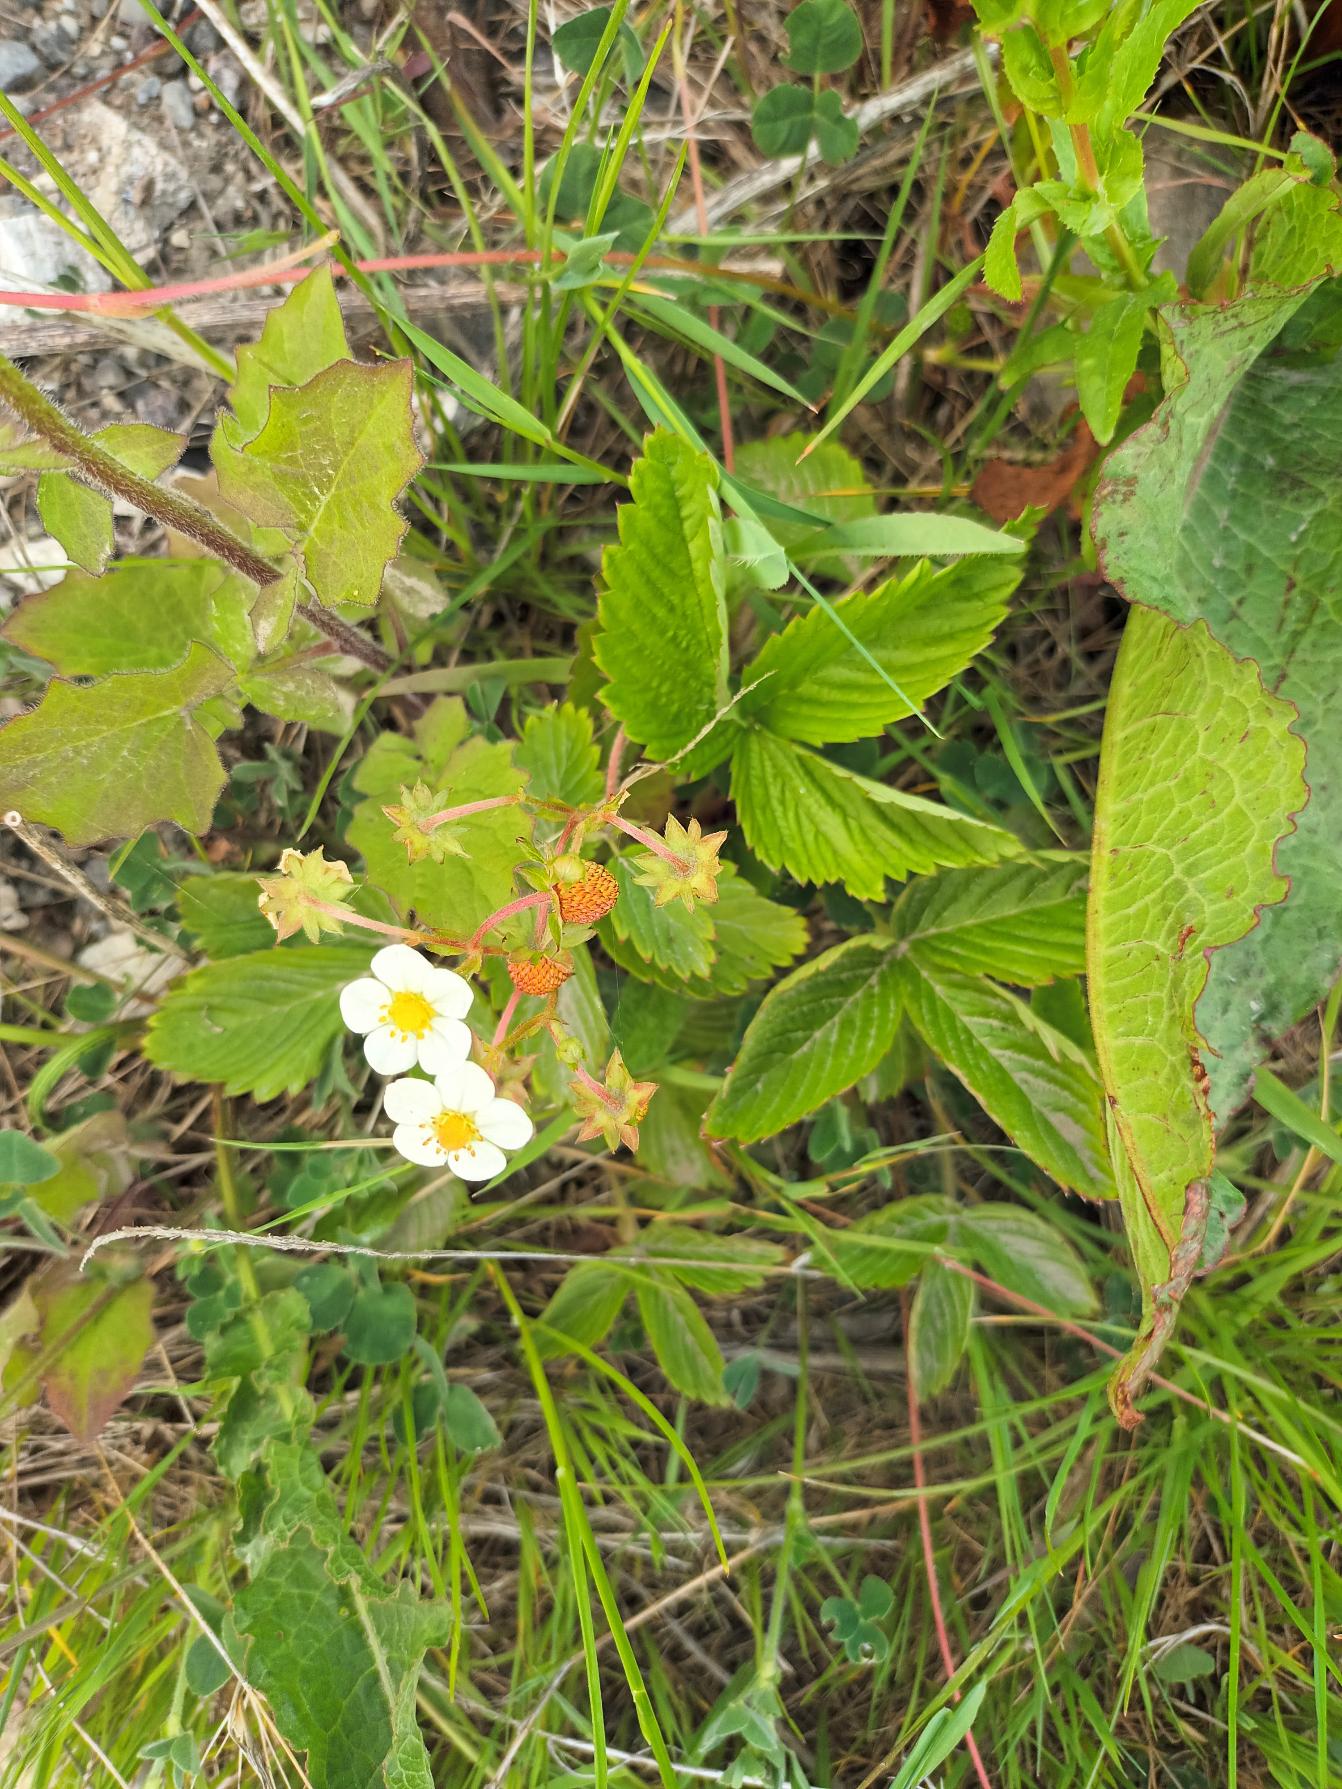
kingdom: Plantae
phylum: Tracheophyta
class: Magnoliopsida
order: Rosales
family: Rosaceae
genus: Fragaria
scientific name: Fragaria
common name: Jordbærslægten
